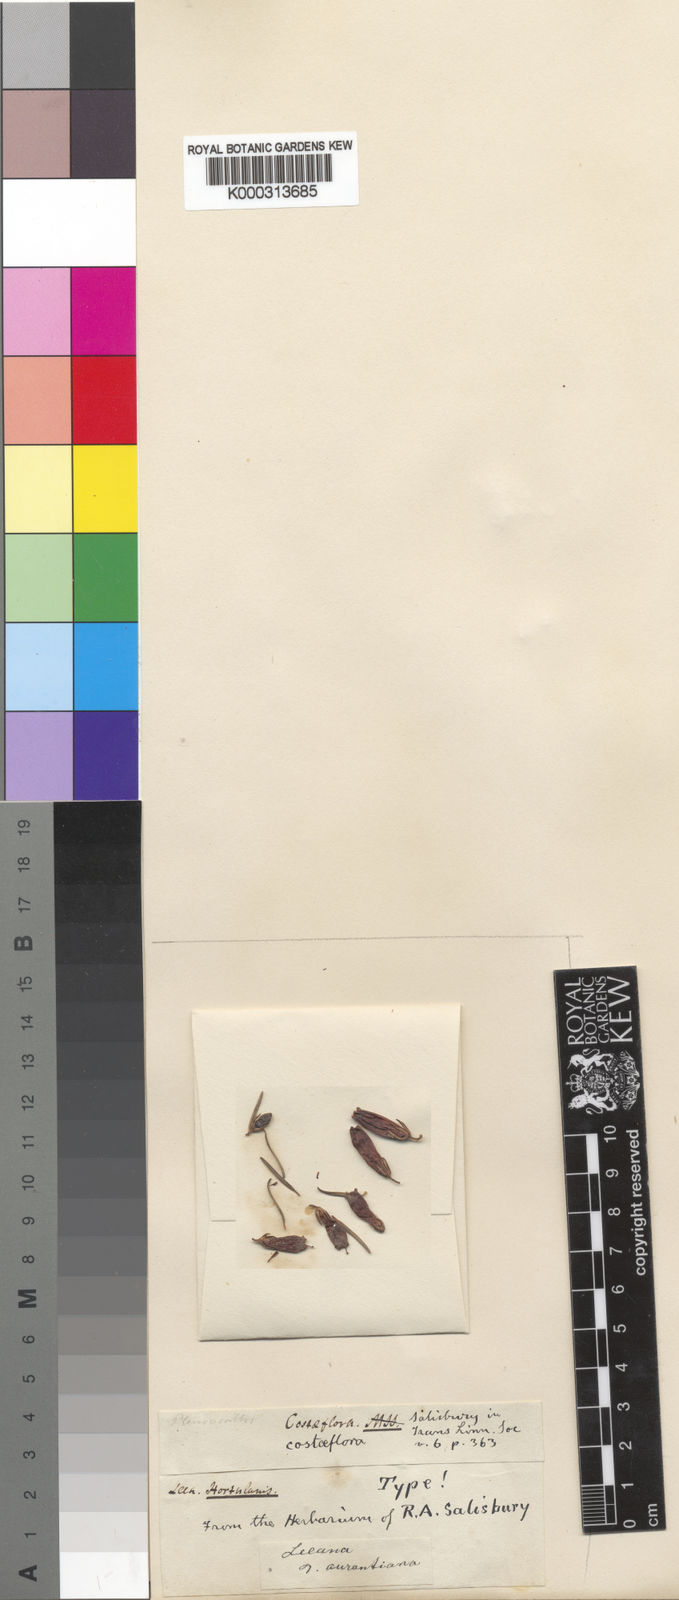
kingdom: Plantae
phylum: Tracheophyta
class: Magnoliopsida
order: Ericales
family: Ericaceae
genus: Erica
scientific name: Erica viscaria
